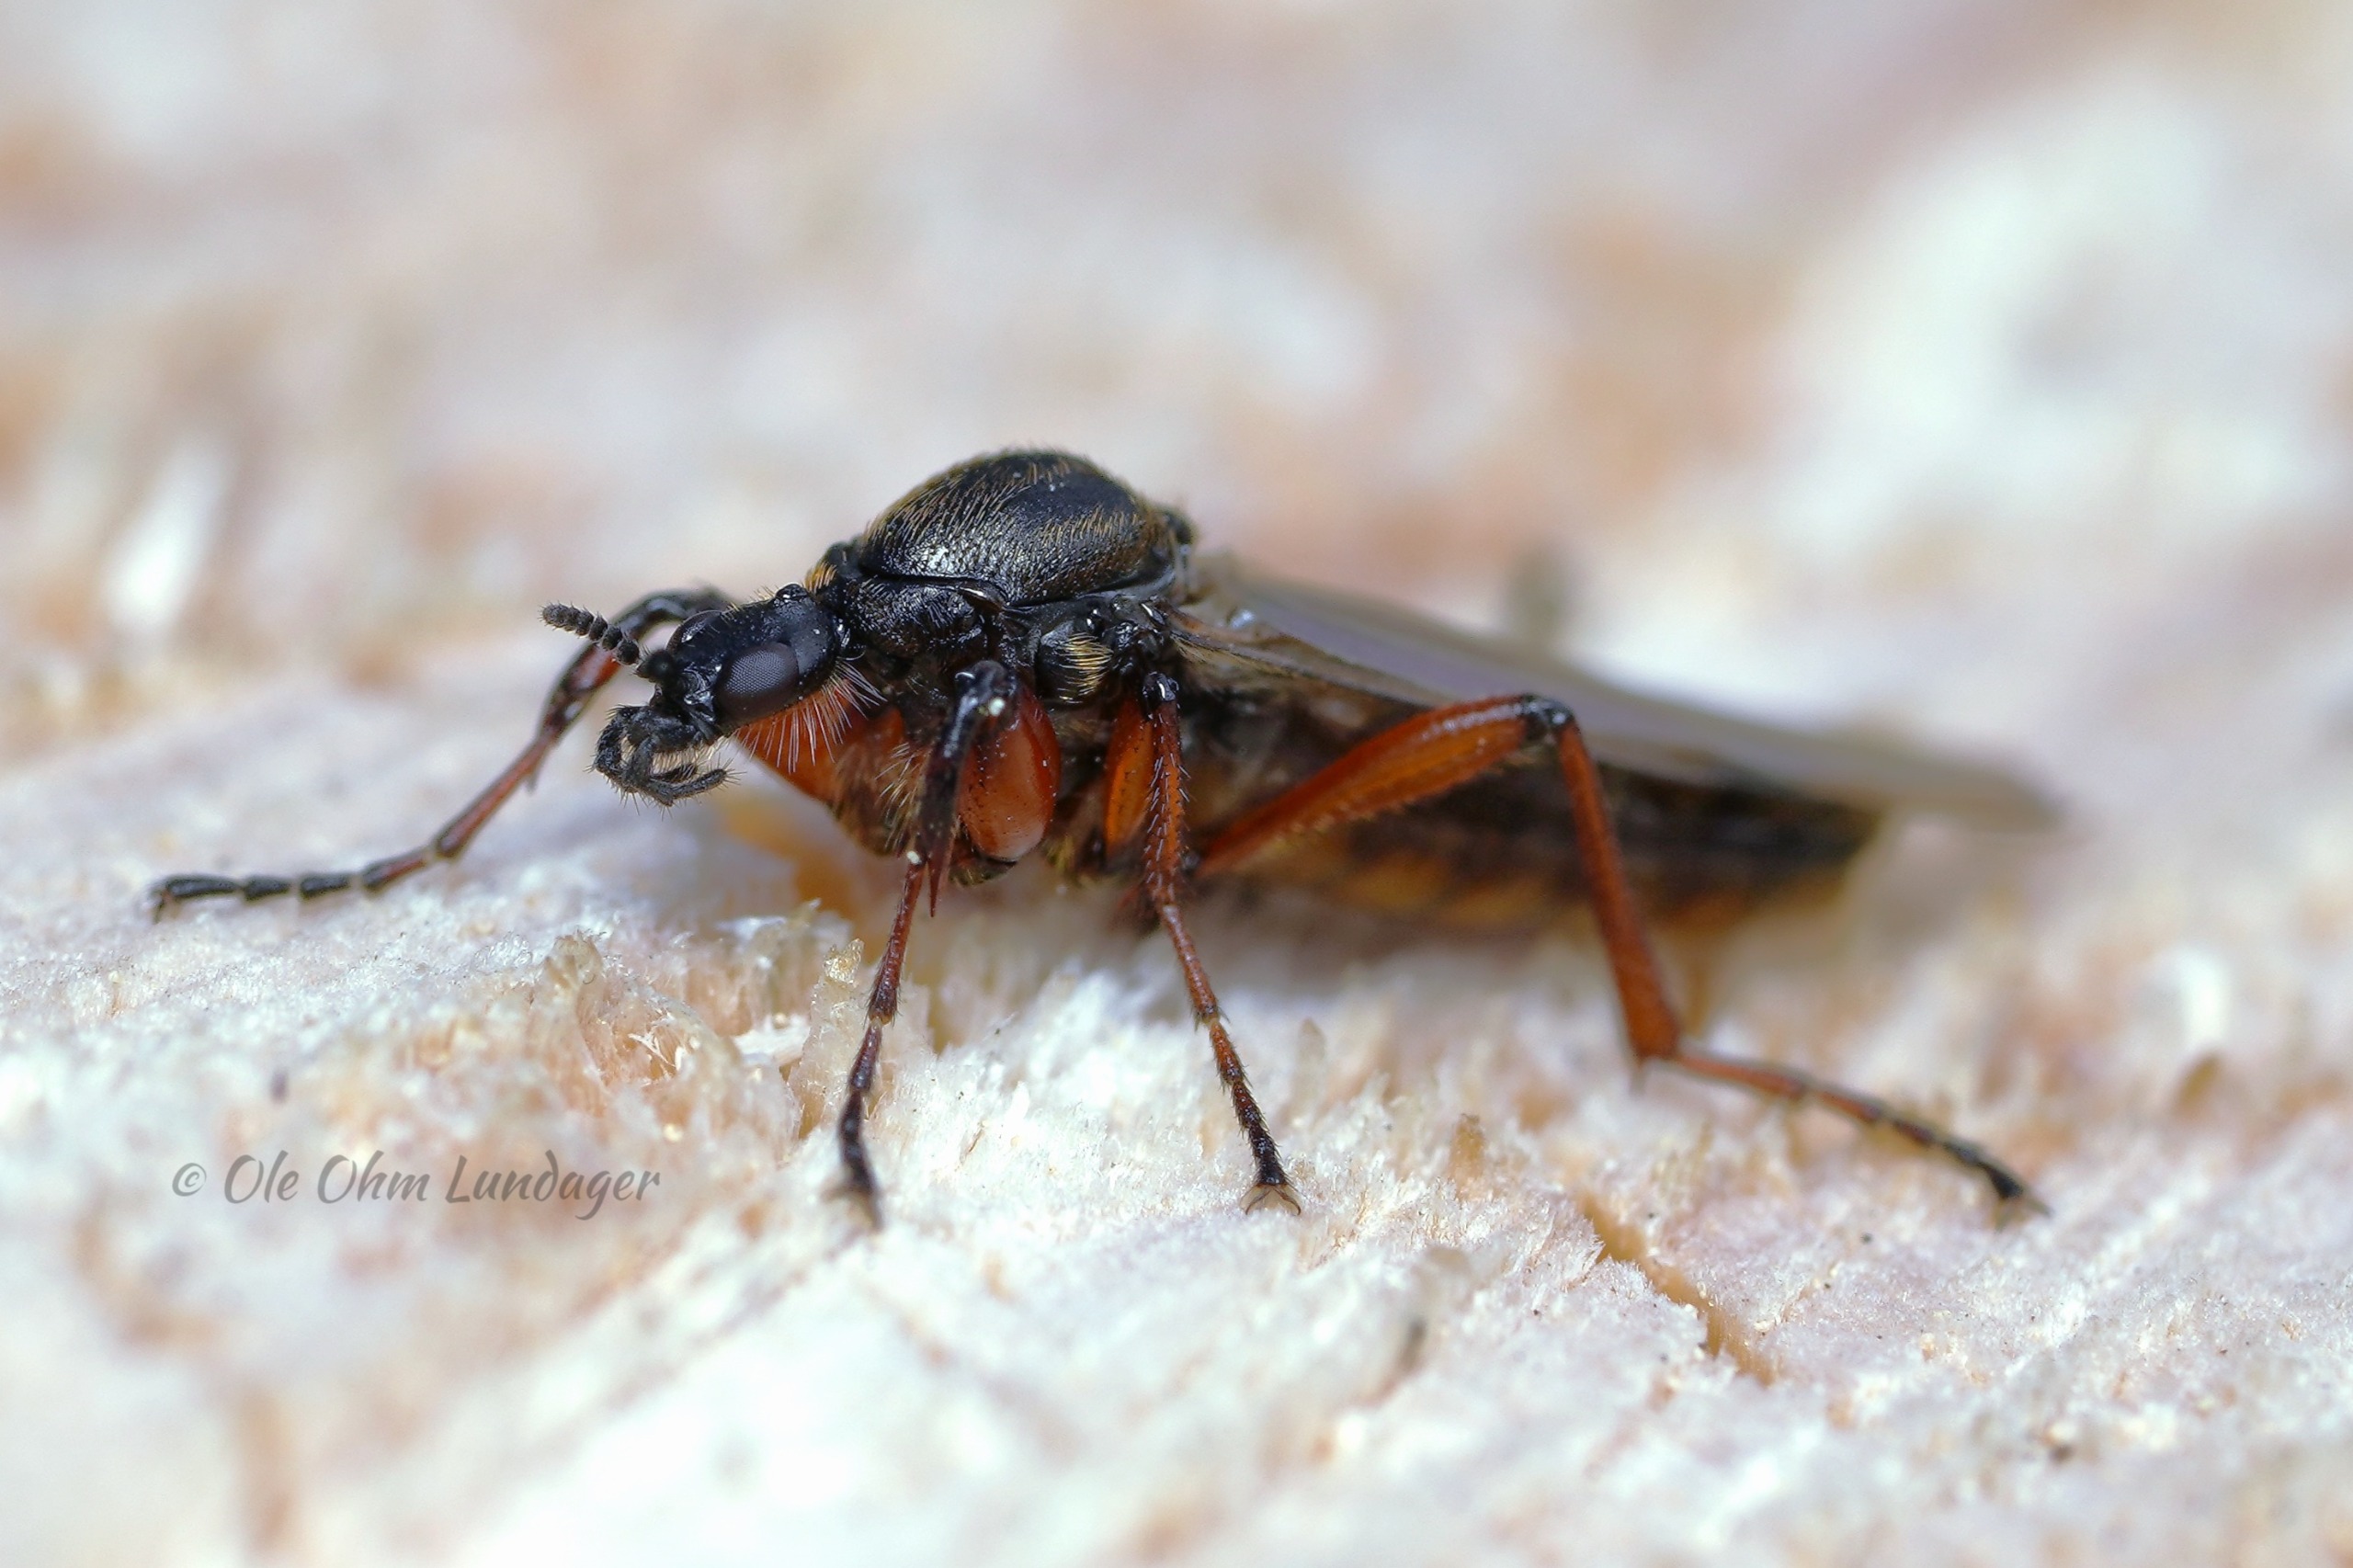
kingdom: Animalia
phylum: Arthropoda
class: Insecta
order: Diptera
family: Bibionidae
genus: Bibio
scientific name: Bibio varipes
